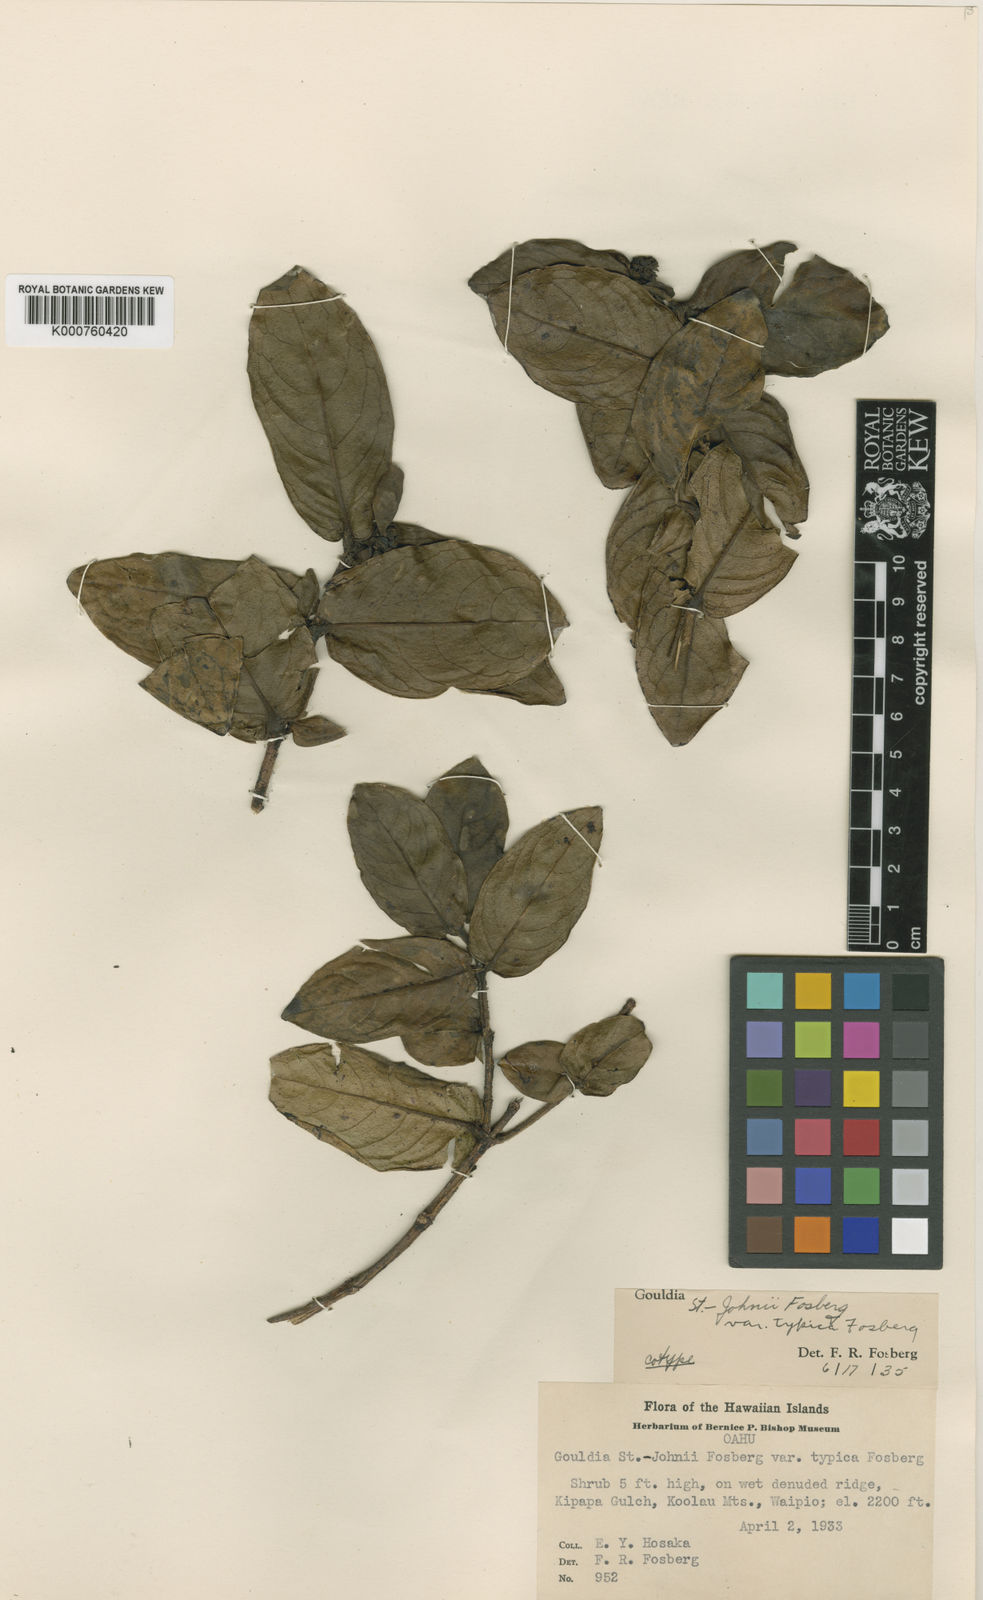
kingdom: Plantae
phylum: Tracheophyta
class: Magnoliopsida
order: Gentianales
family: Rubiaceae
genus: Kadua
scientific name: Kadua munroi
